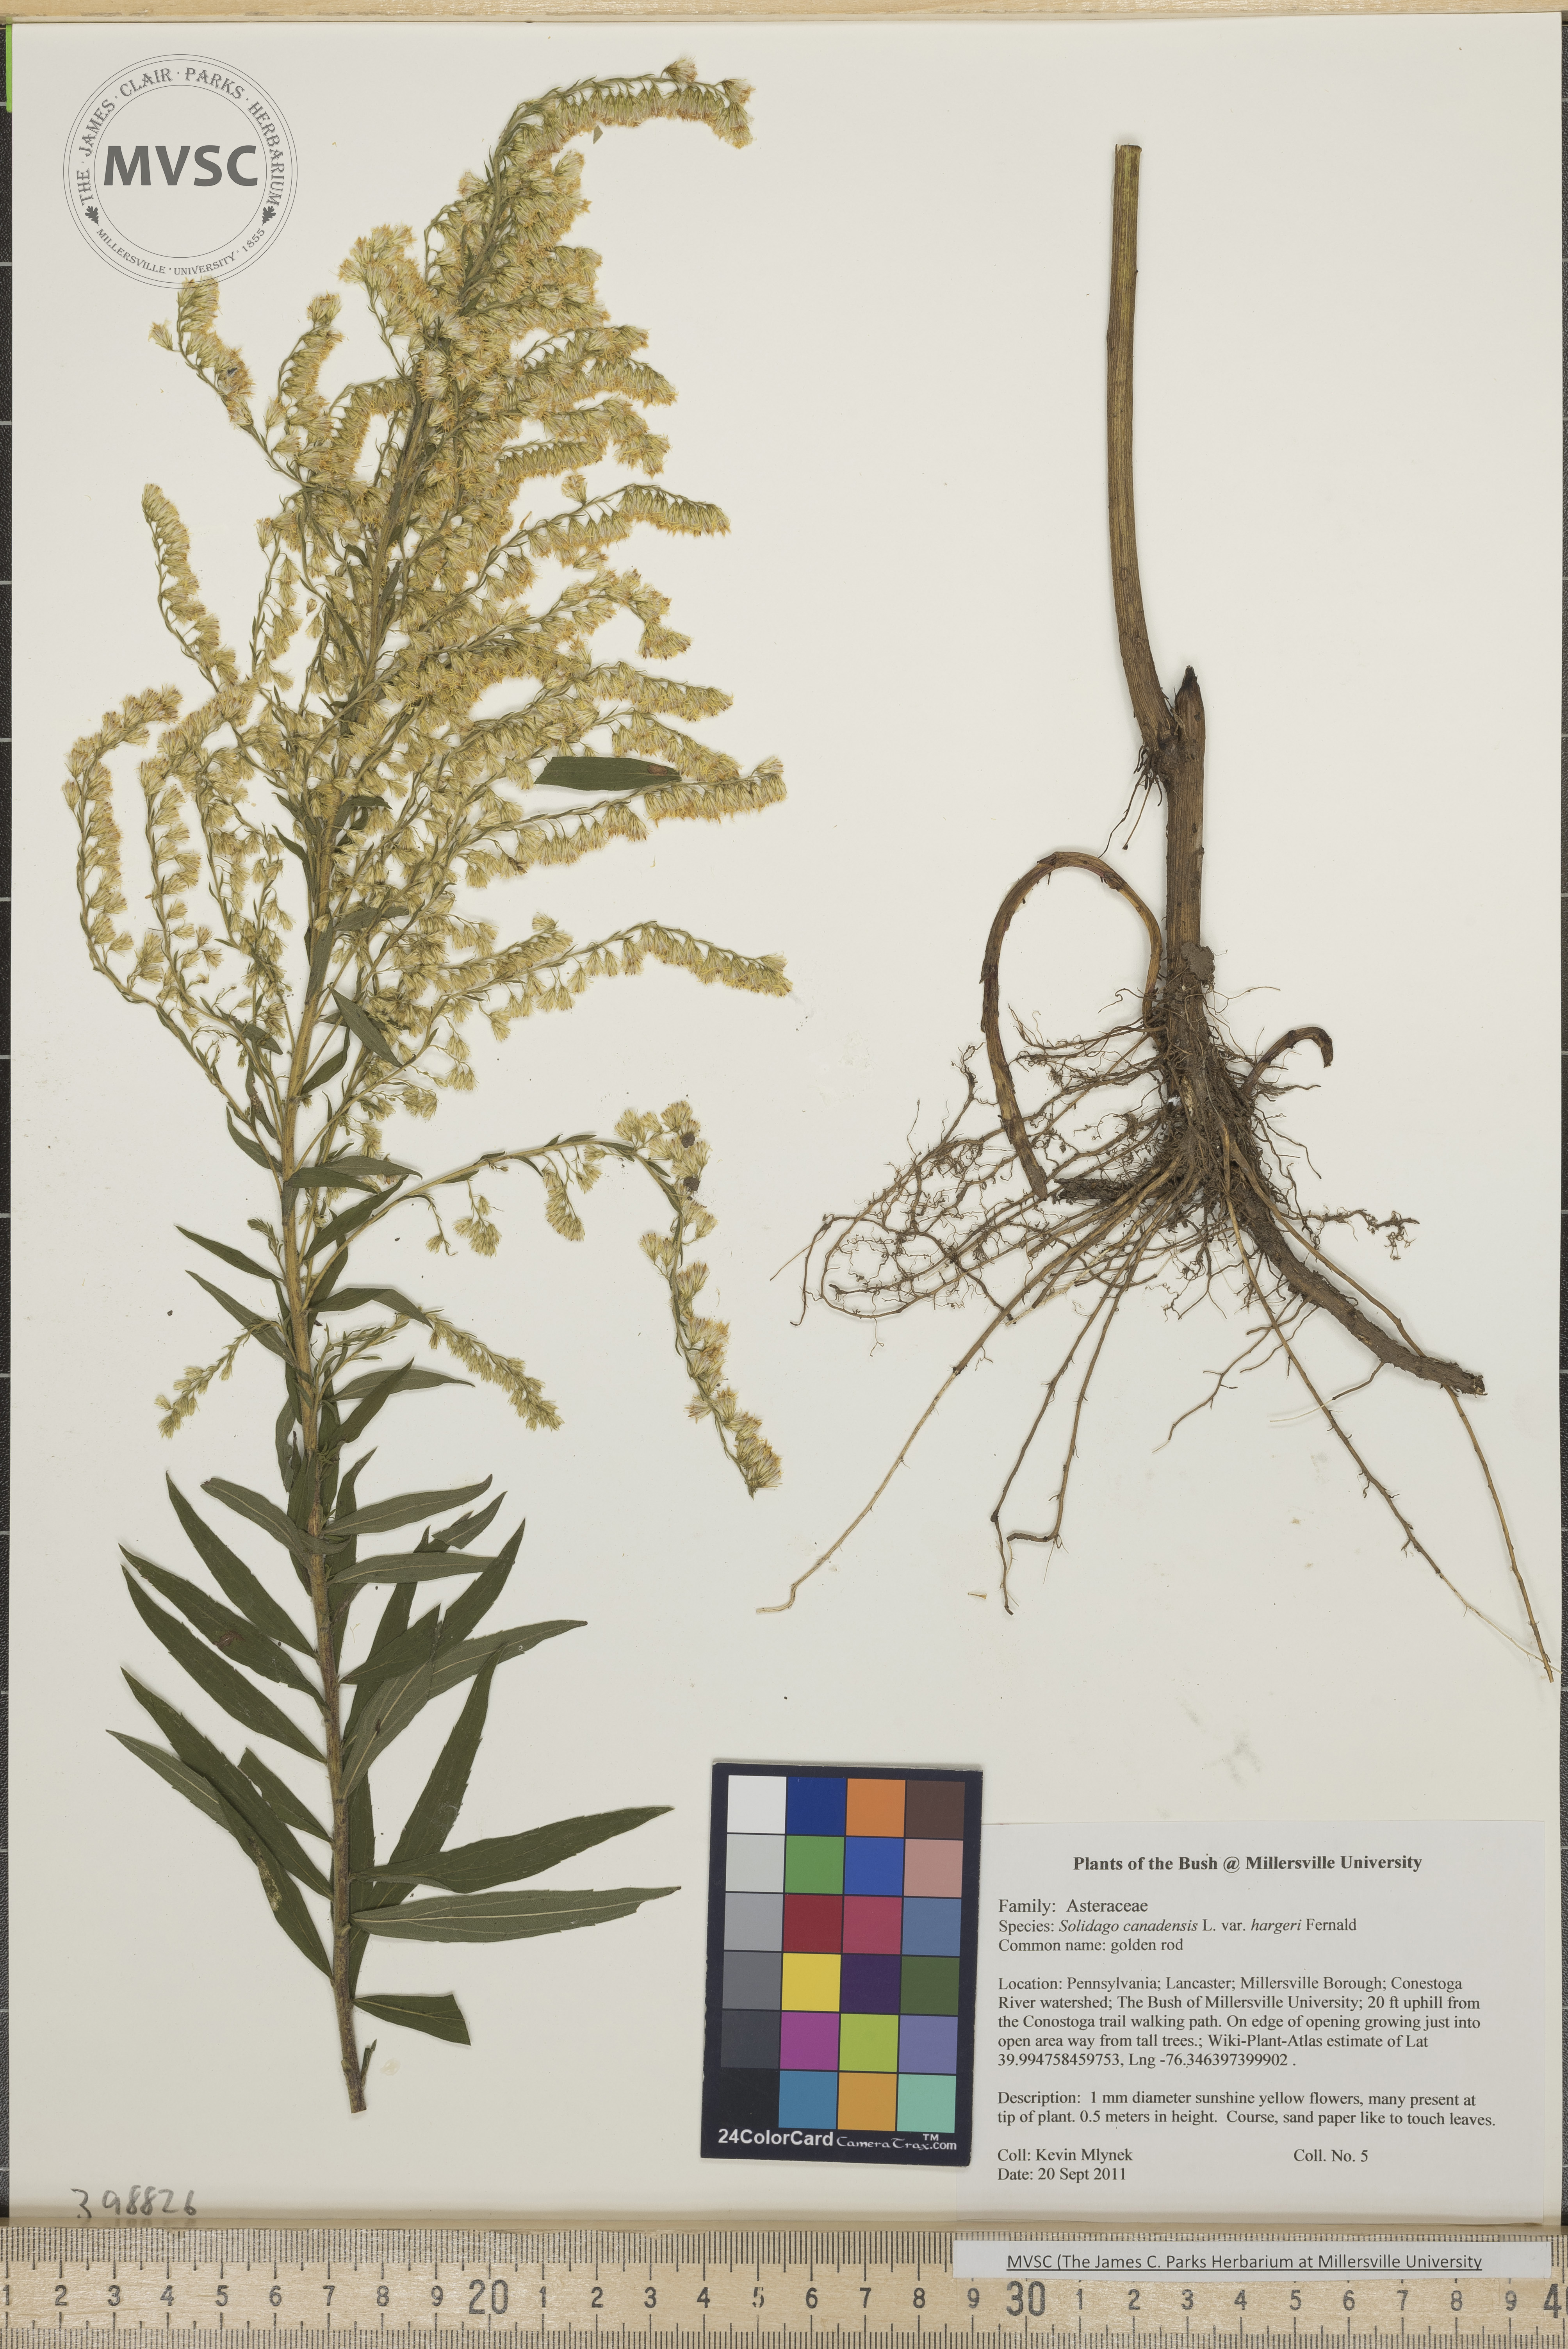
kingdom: Plantae
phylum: Tracheophyta
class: Magnoliopsida
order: Asterales
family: Asteraceae
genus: Solidago
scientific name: Solidago altissima
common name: Late goldenrod
